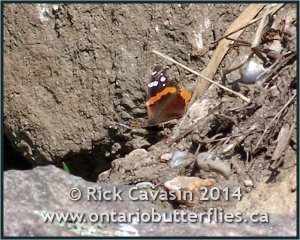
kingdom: Animalia
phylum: Arthropoda
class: Insecta
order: Lepidoptera
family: Nymphalidae
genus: Vanessa
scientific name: Vanessa atalanta
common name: Red Admiral
